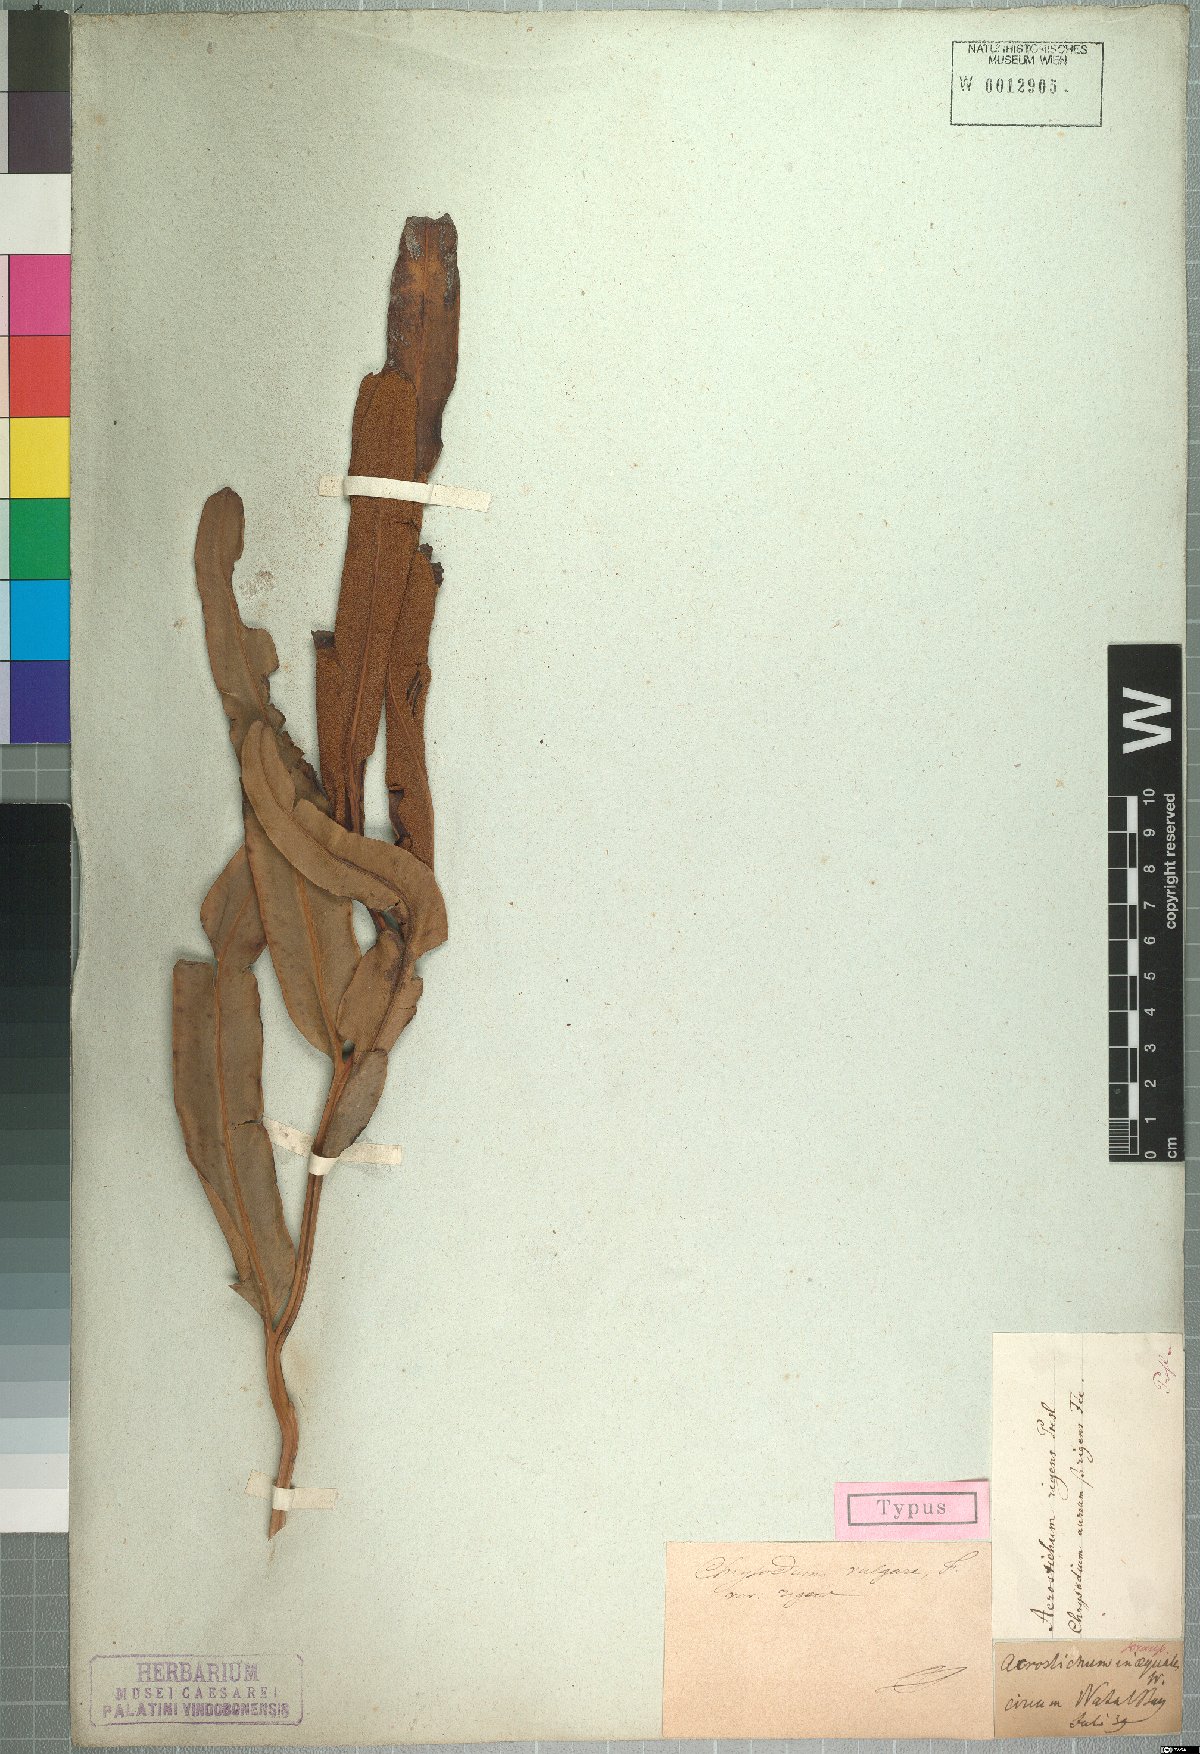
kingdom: Plantae
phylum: Tracheophyta
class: Polypodiopsida
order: Polypodiales
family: Pteridaceae
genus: Acrostichum
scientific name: Acrostichum aureum
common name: Leather fern
